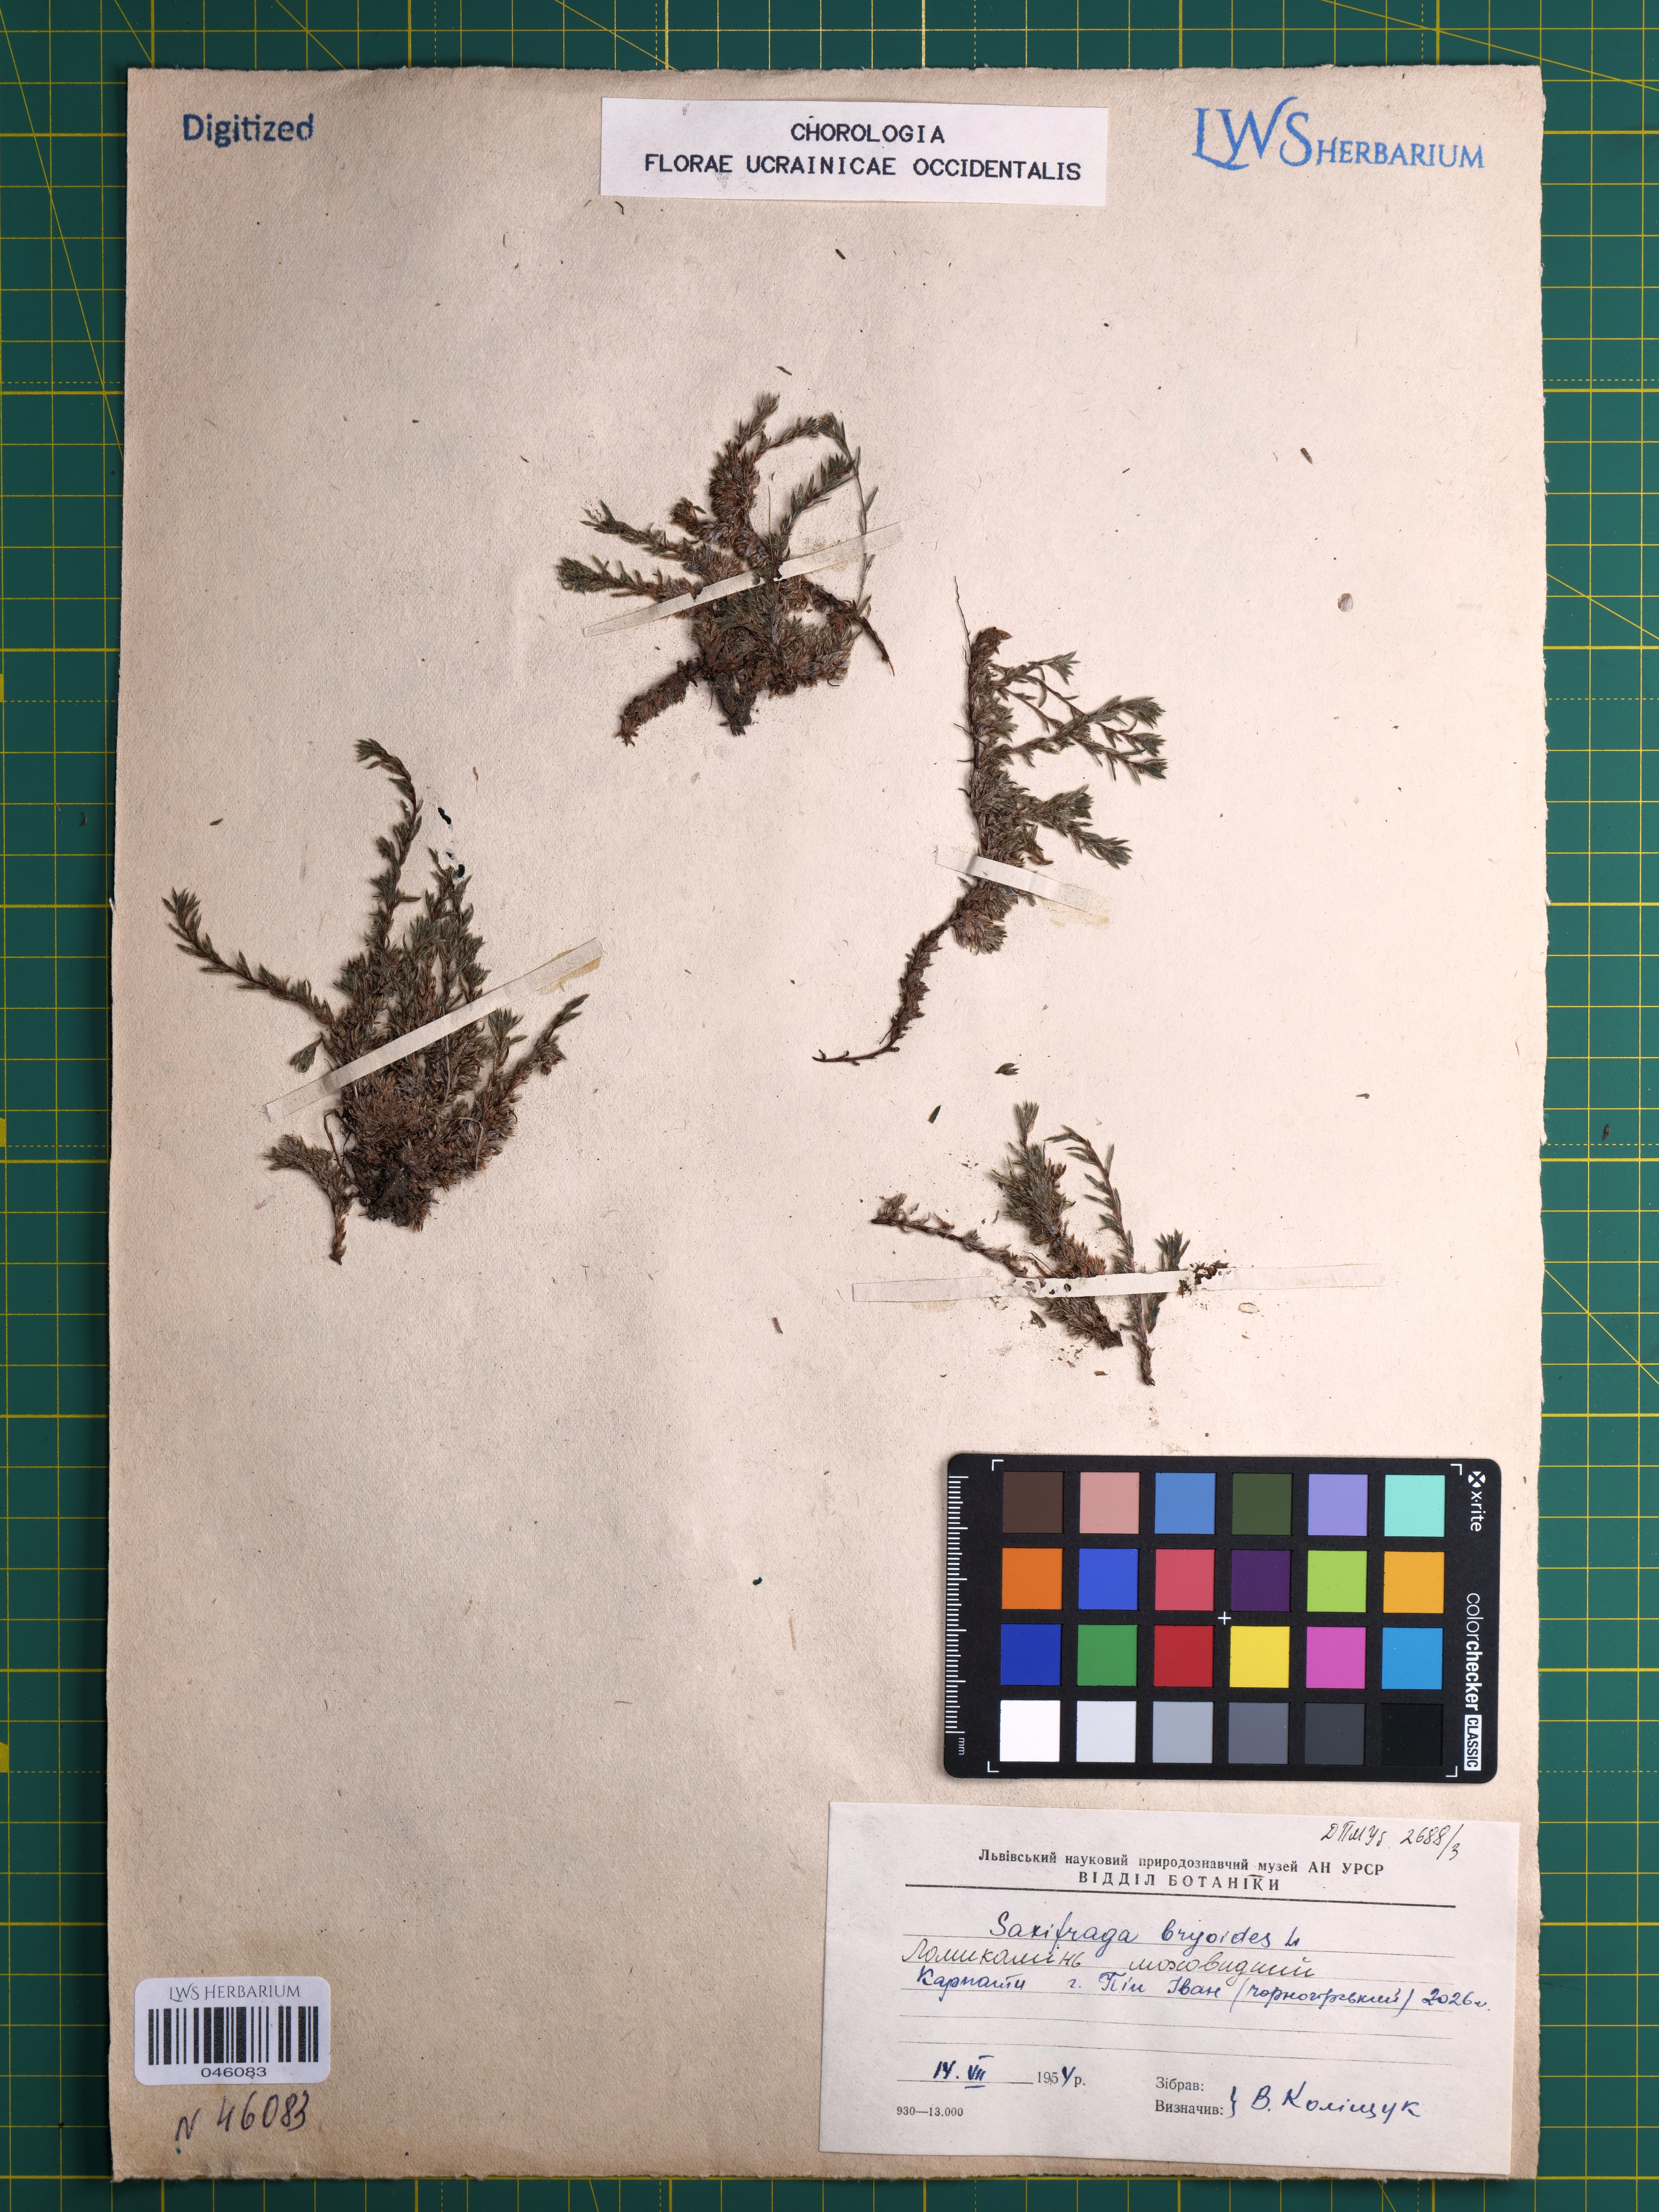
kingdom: Plantae
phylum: Tracheophyta
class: Magnoliopsida
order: Saxifragales
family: Saxifragaceae
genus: Saxifraga
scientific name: Saxifraga bryoides
